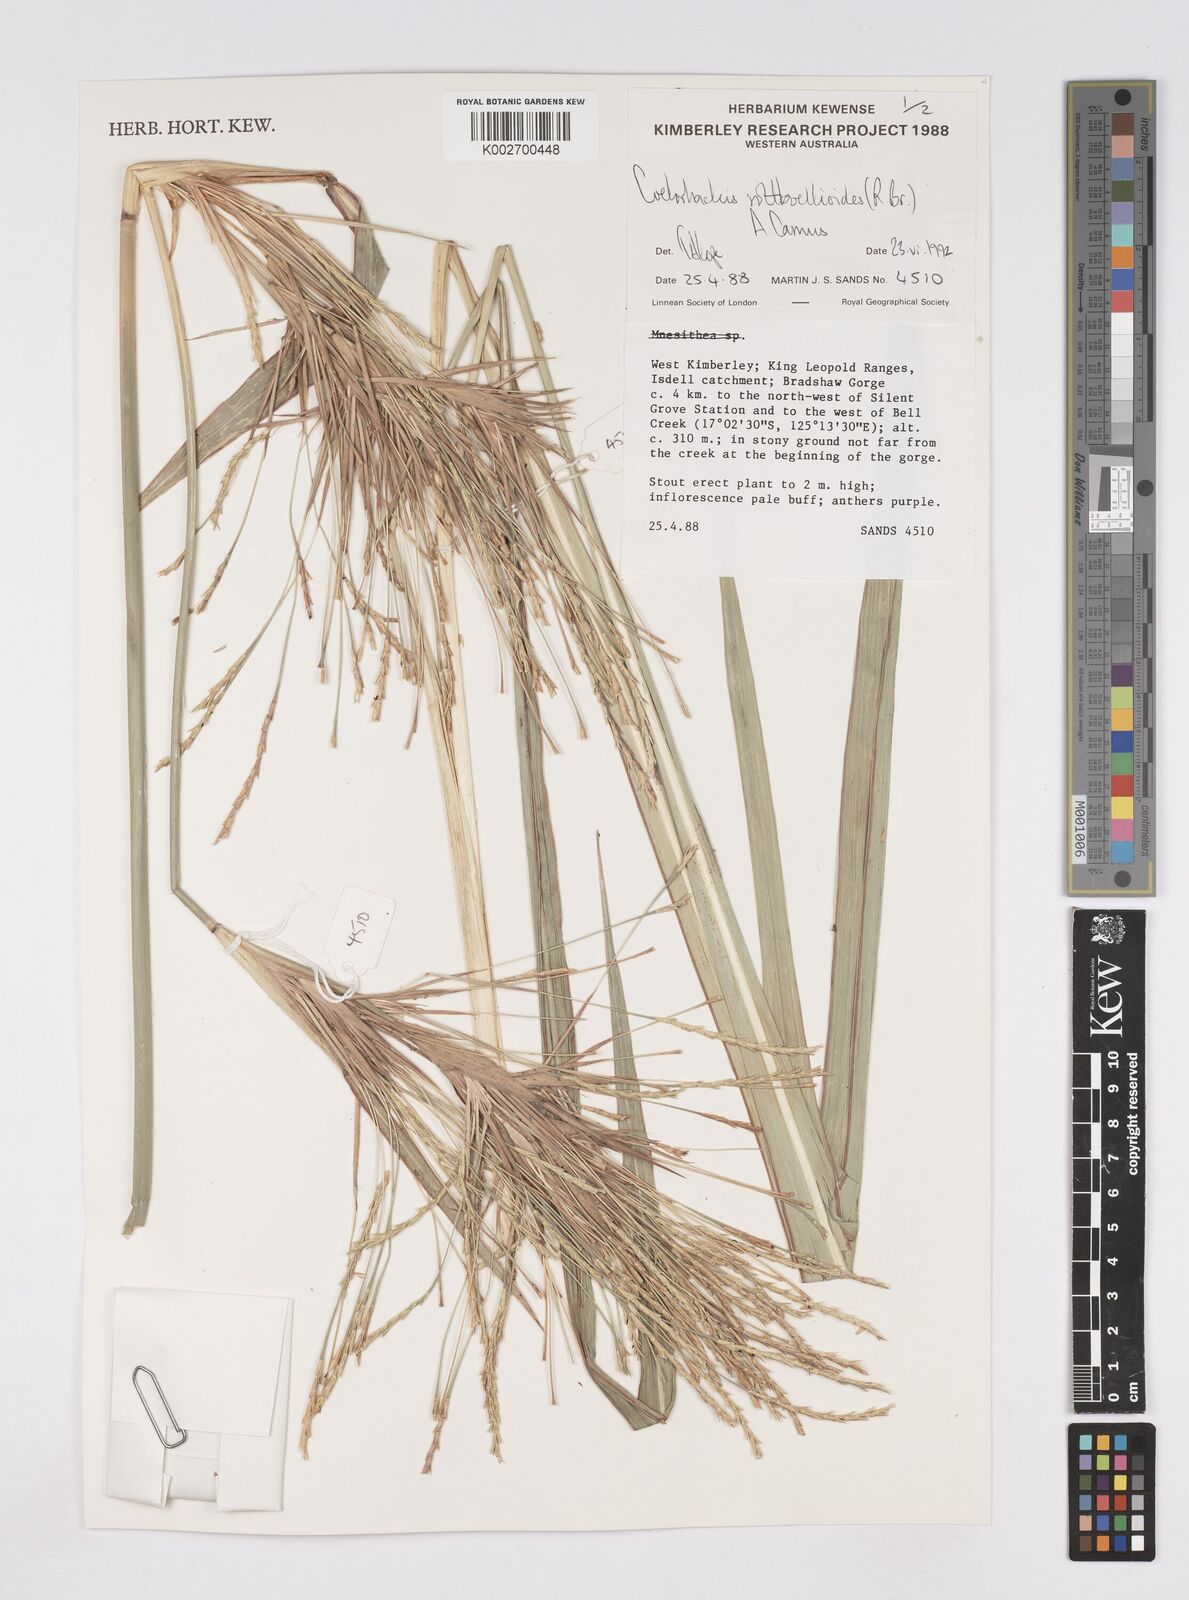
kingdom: Plantae
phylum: Tracheophyta
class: Liliopsida
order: Poales
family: Poaceae
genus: Rottboellia
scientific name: Rottboellia rottboellioides
